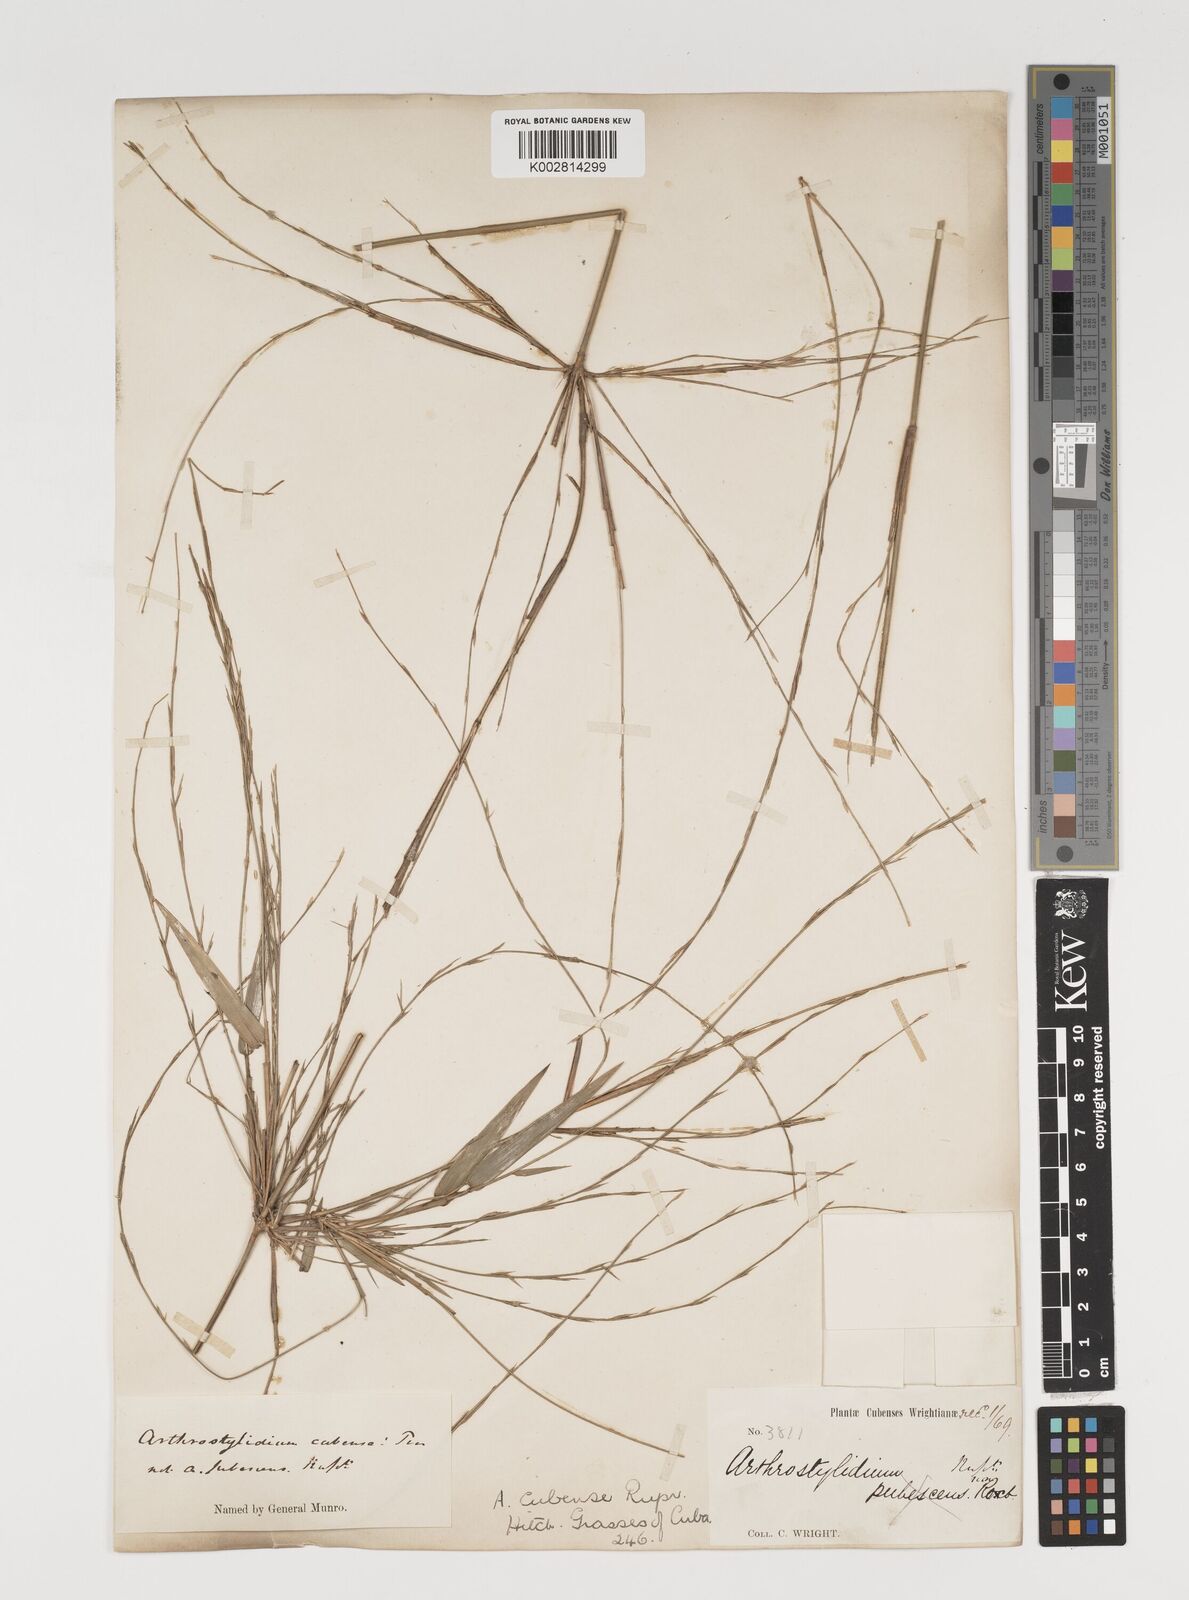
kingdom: Plantae
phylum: Tracheophyta
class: Liliopsida
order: Poales
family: Poaceae
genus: Arthrostylidium
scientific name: Arthrostylidium cubense
